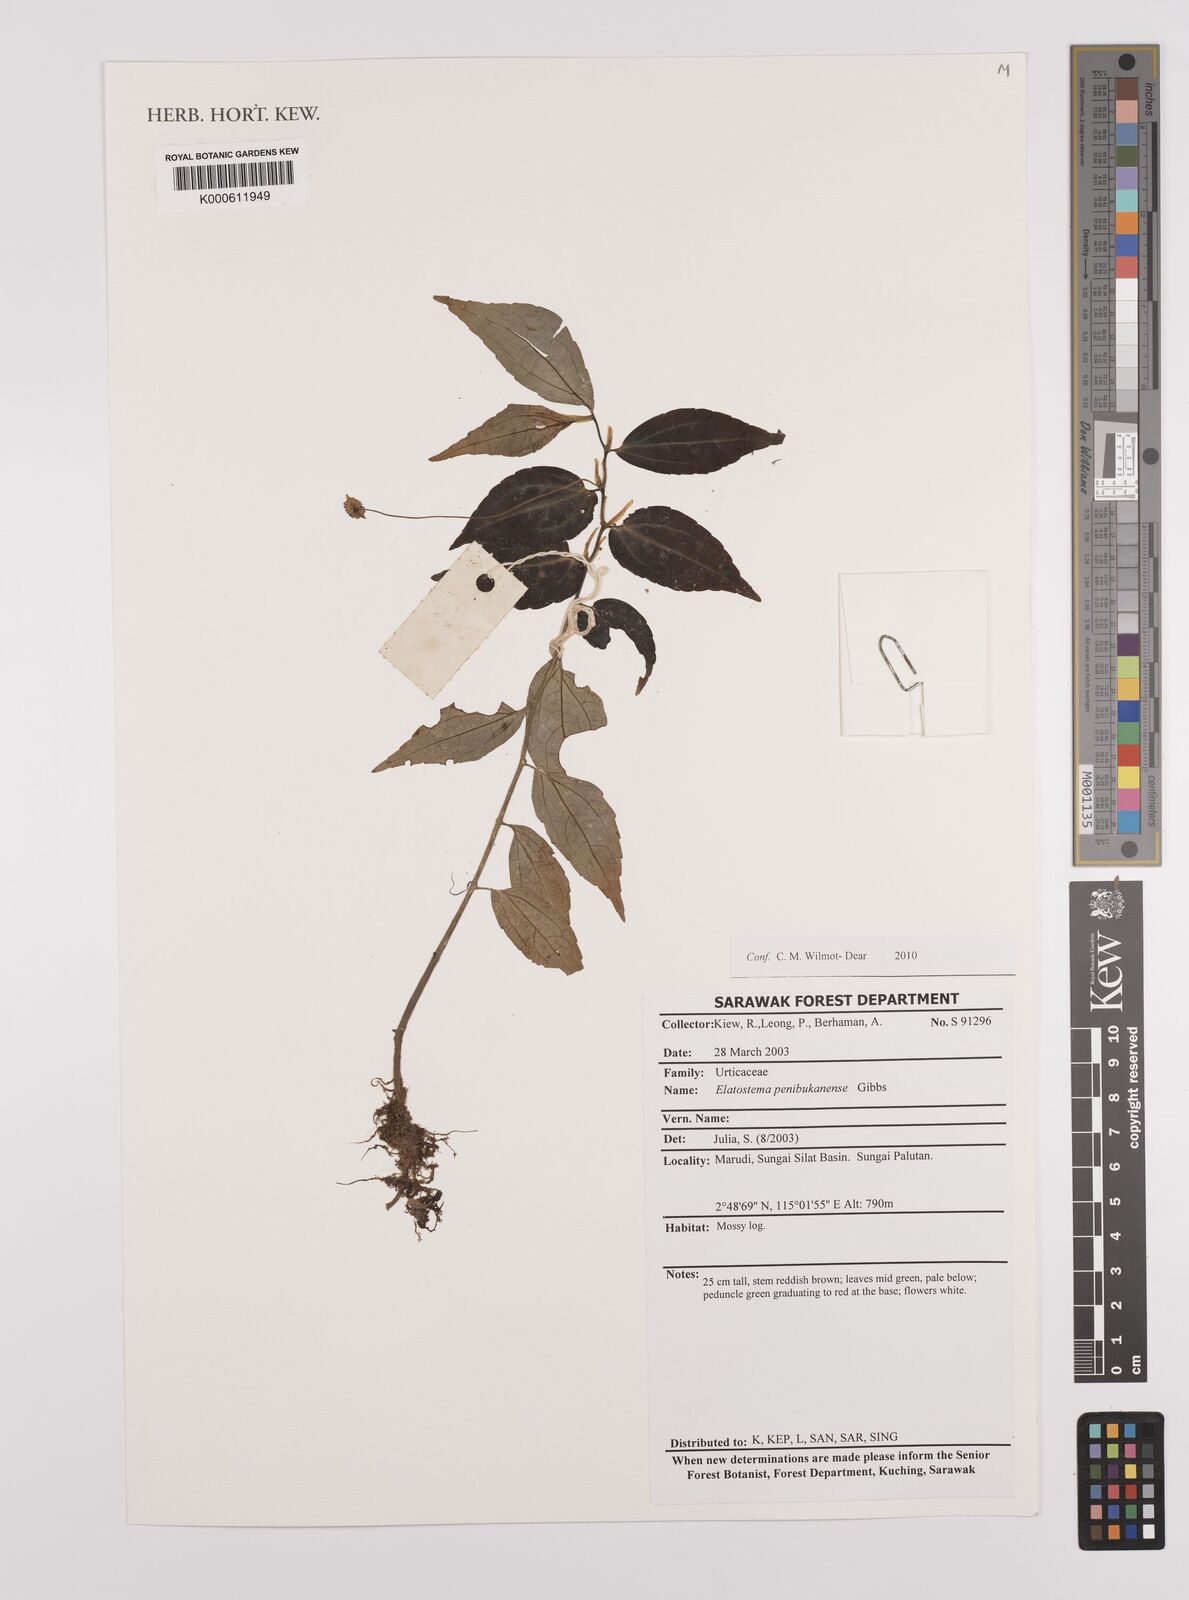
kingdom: Plantae
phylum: Tracheophyta
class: Magnoliopsida
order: Rosales
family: Urticaceae
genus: Elatostema
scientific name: Elatostema
